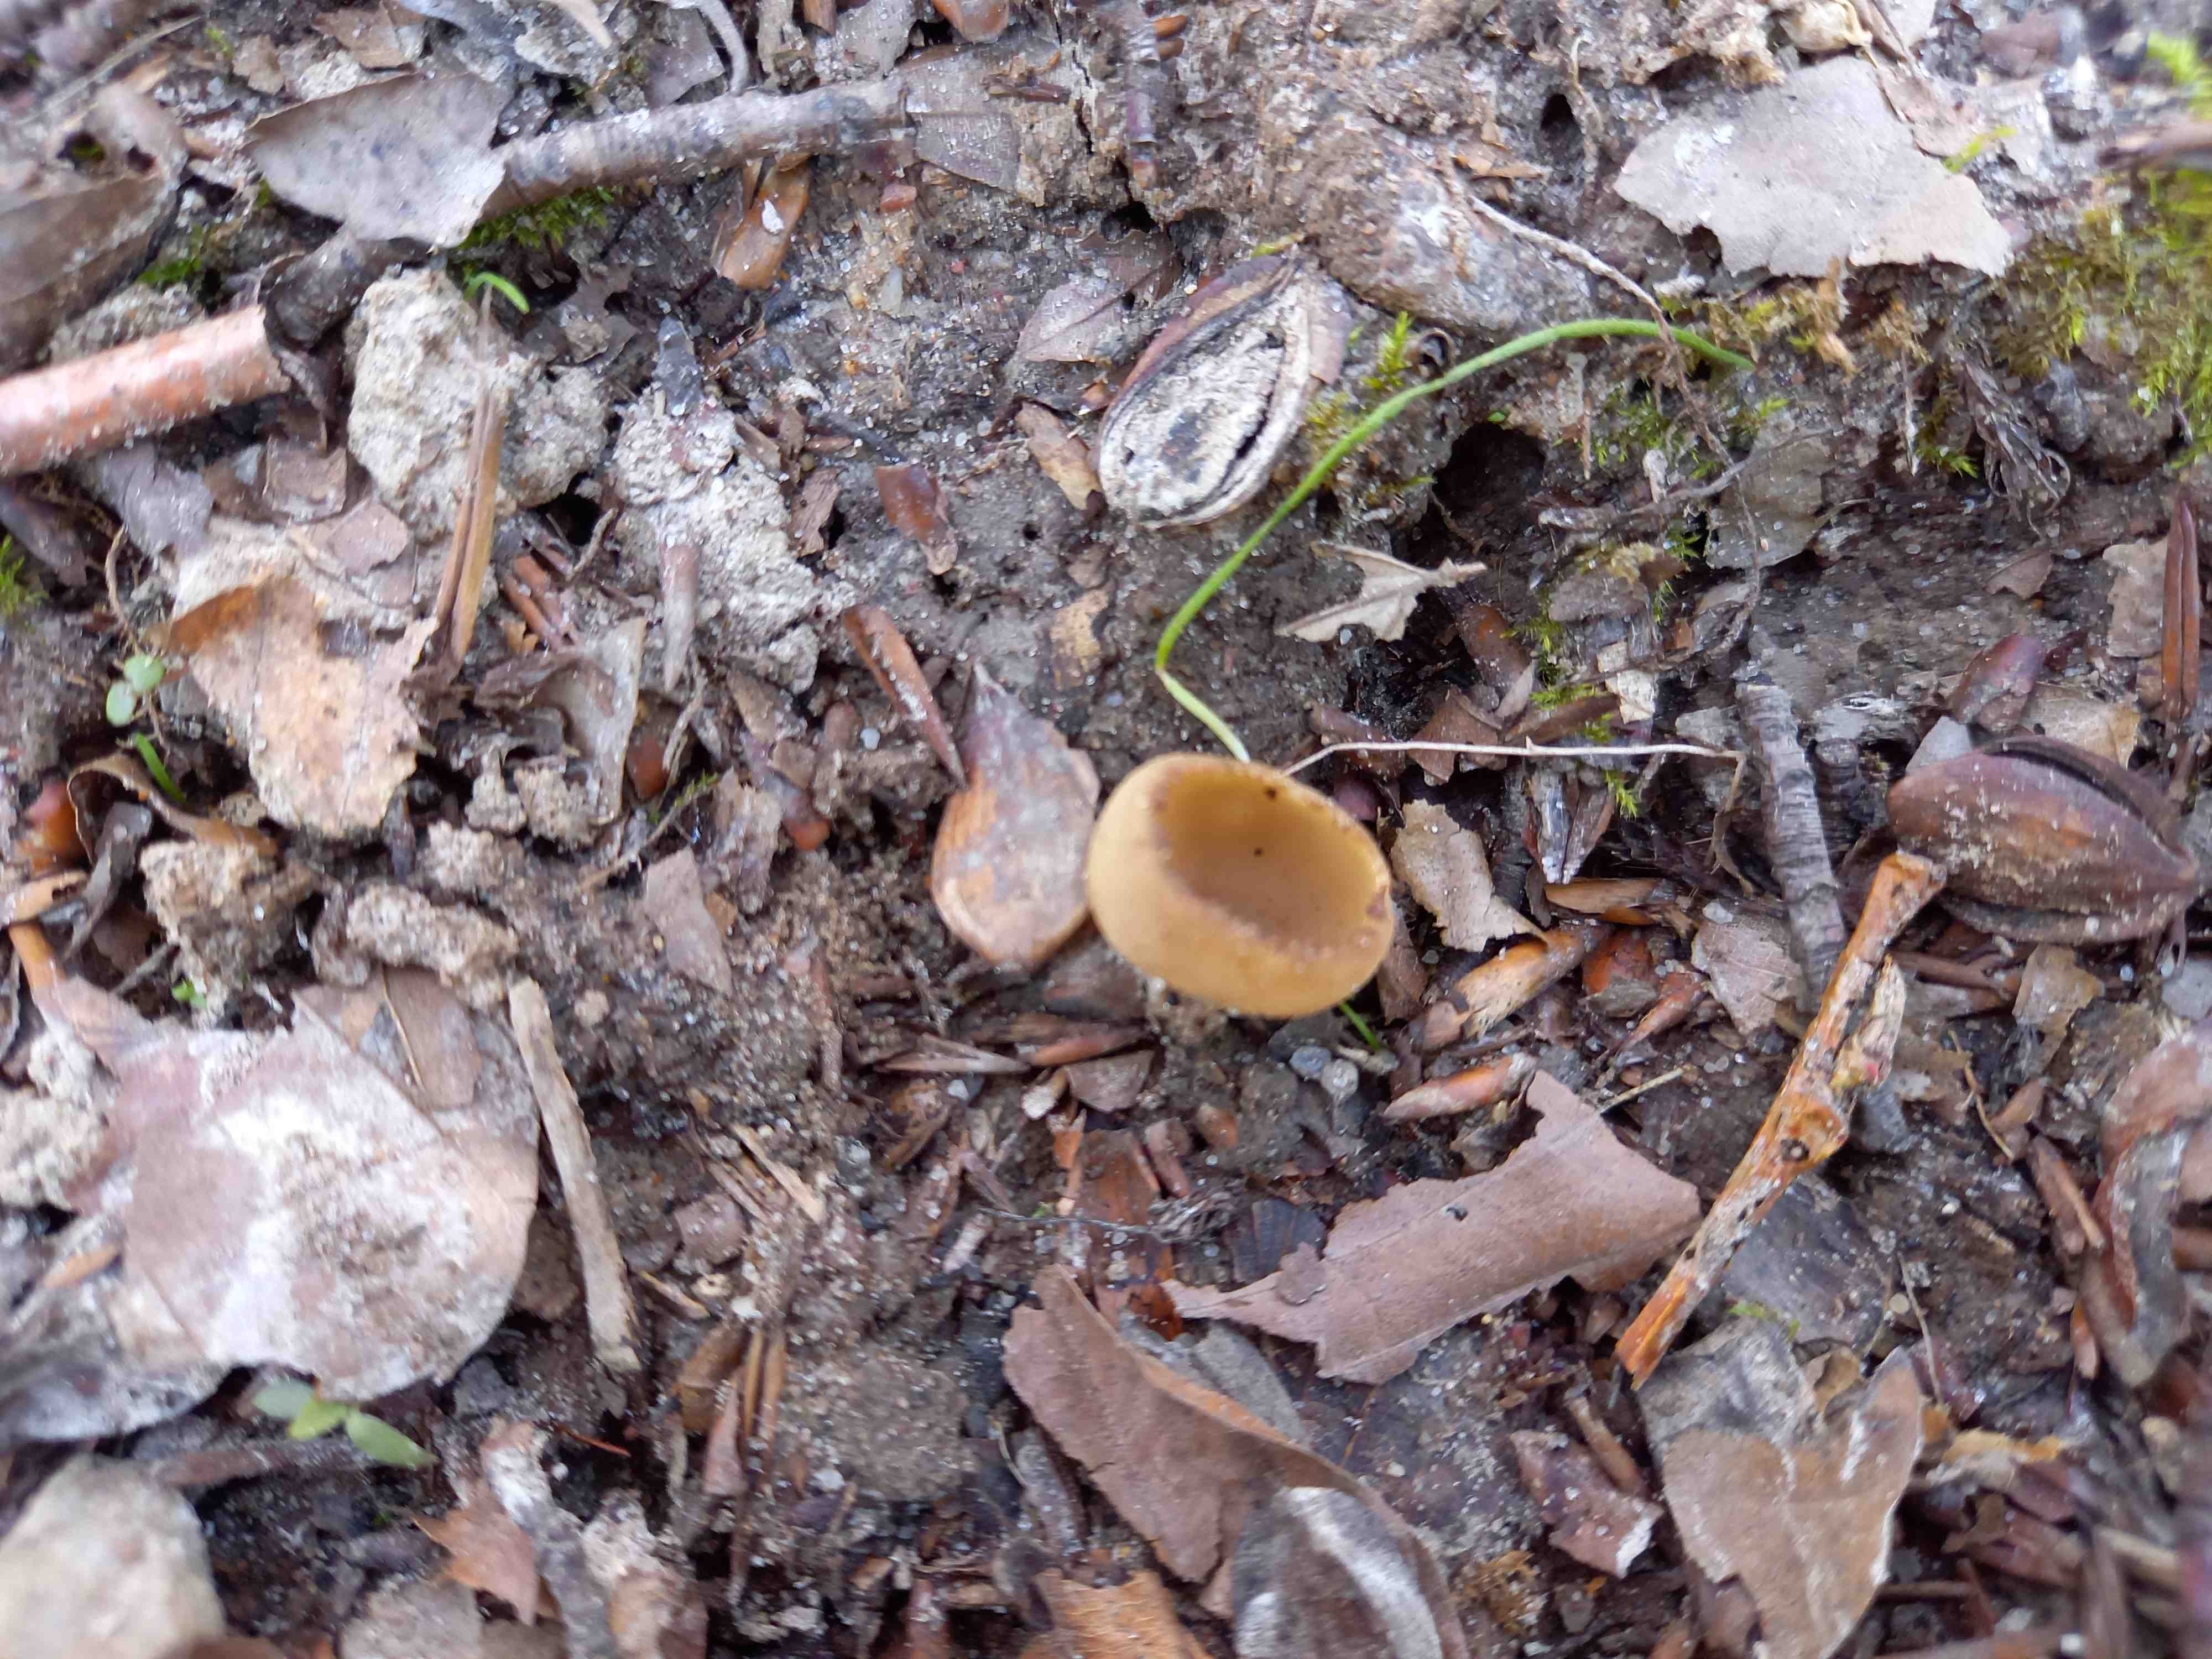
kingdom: Fungi
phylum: Ascomycota
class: Pezizomycetes
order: Pezizales
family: Pyronemataceae
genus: Tarzetta
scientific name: Tarzetta cupularis
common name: gulbrun pokalbæger
